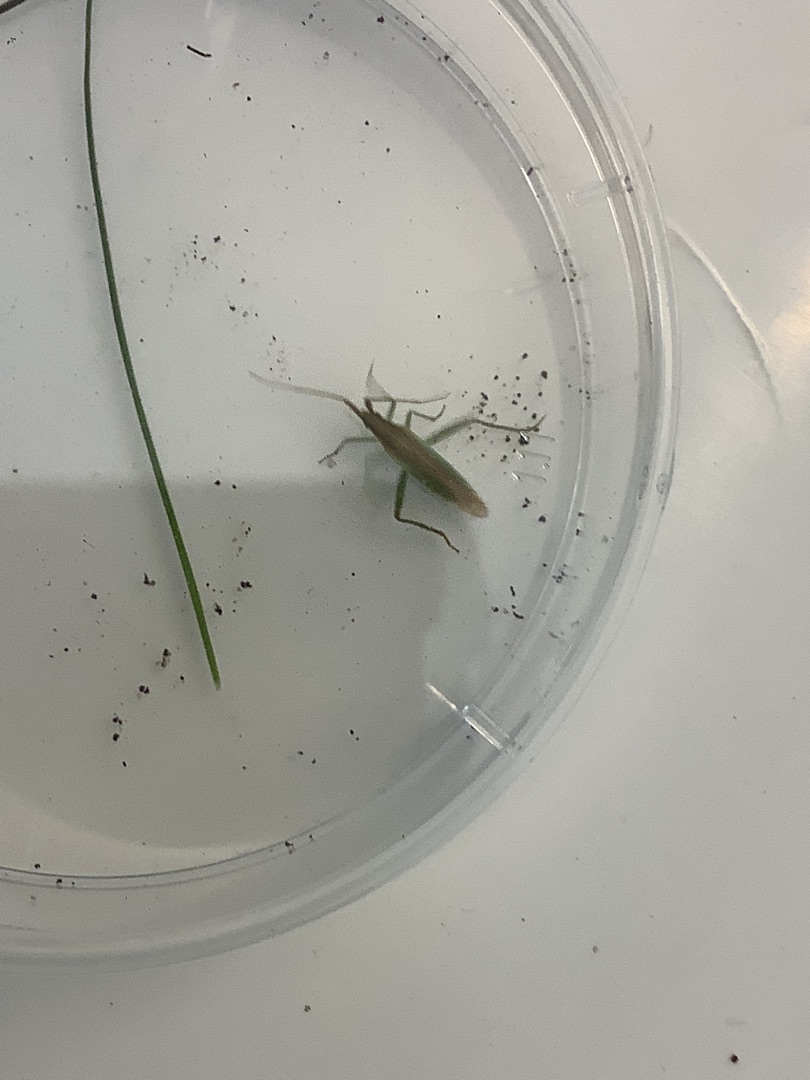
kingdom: Animalia
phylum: Arthropoda
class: Insecta
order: Hemiptera
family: Miridae
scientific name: Miridae
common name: Blomstertæger
